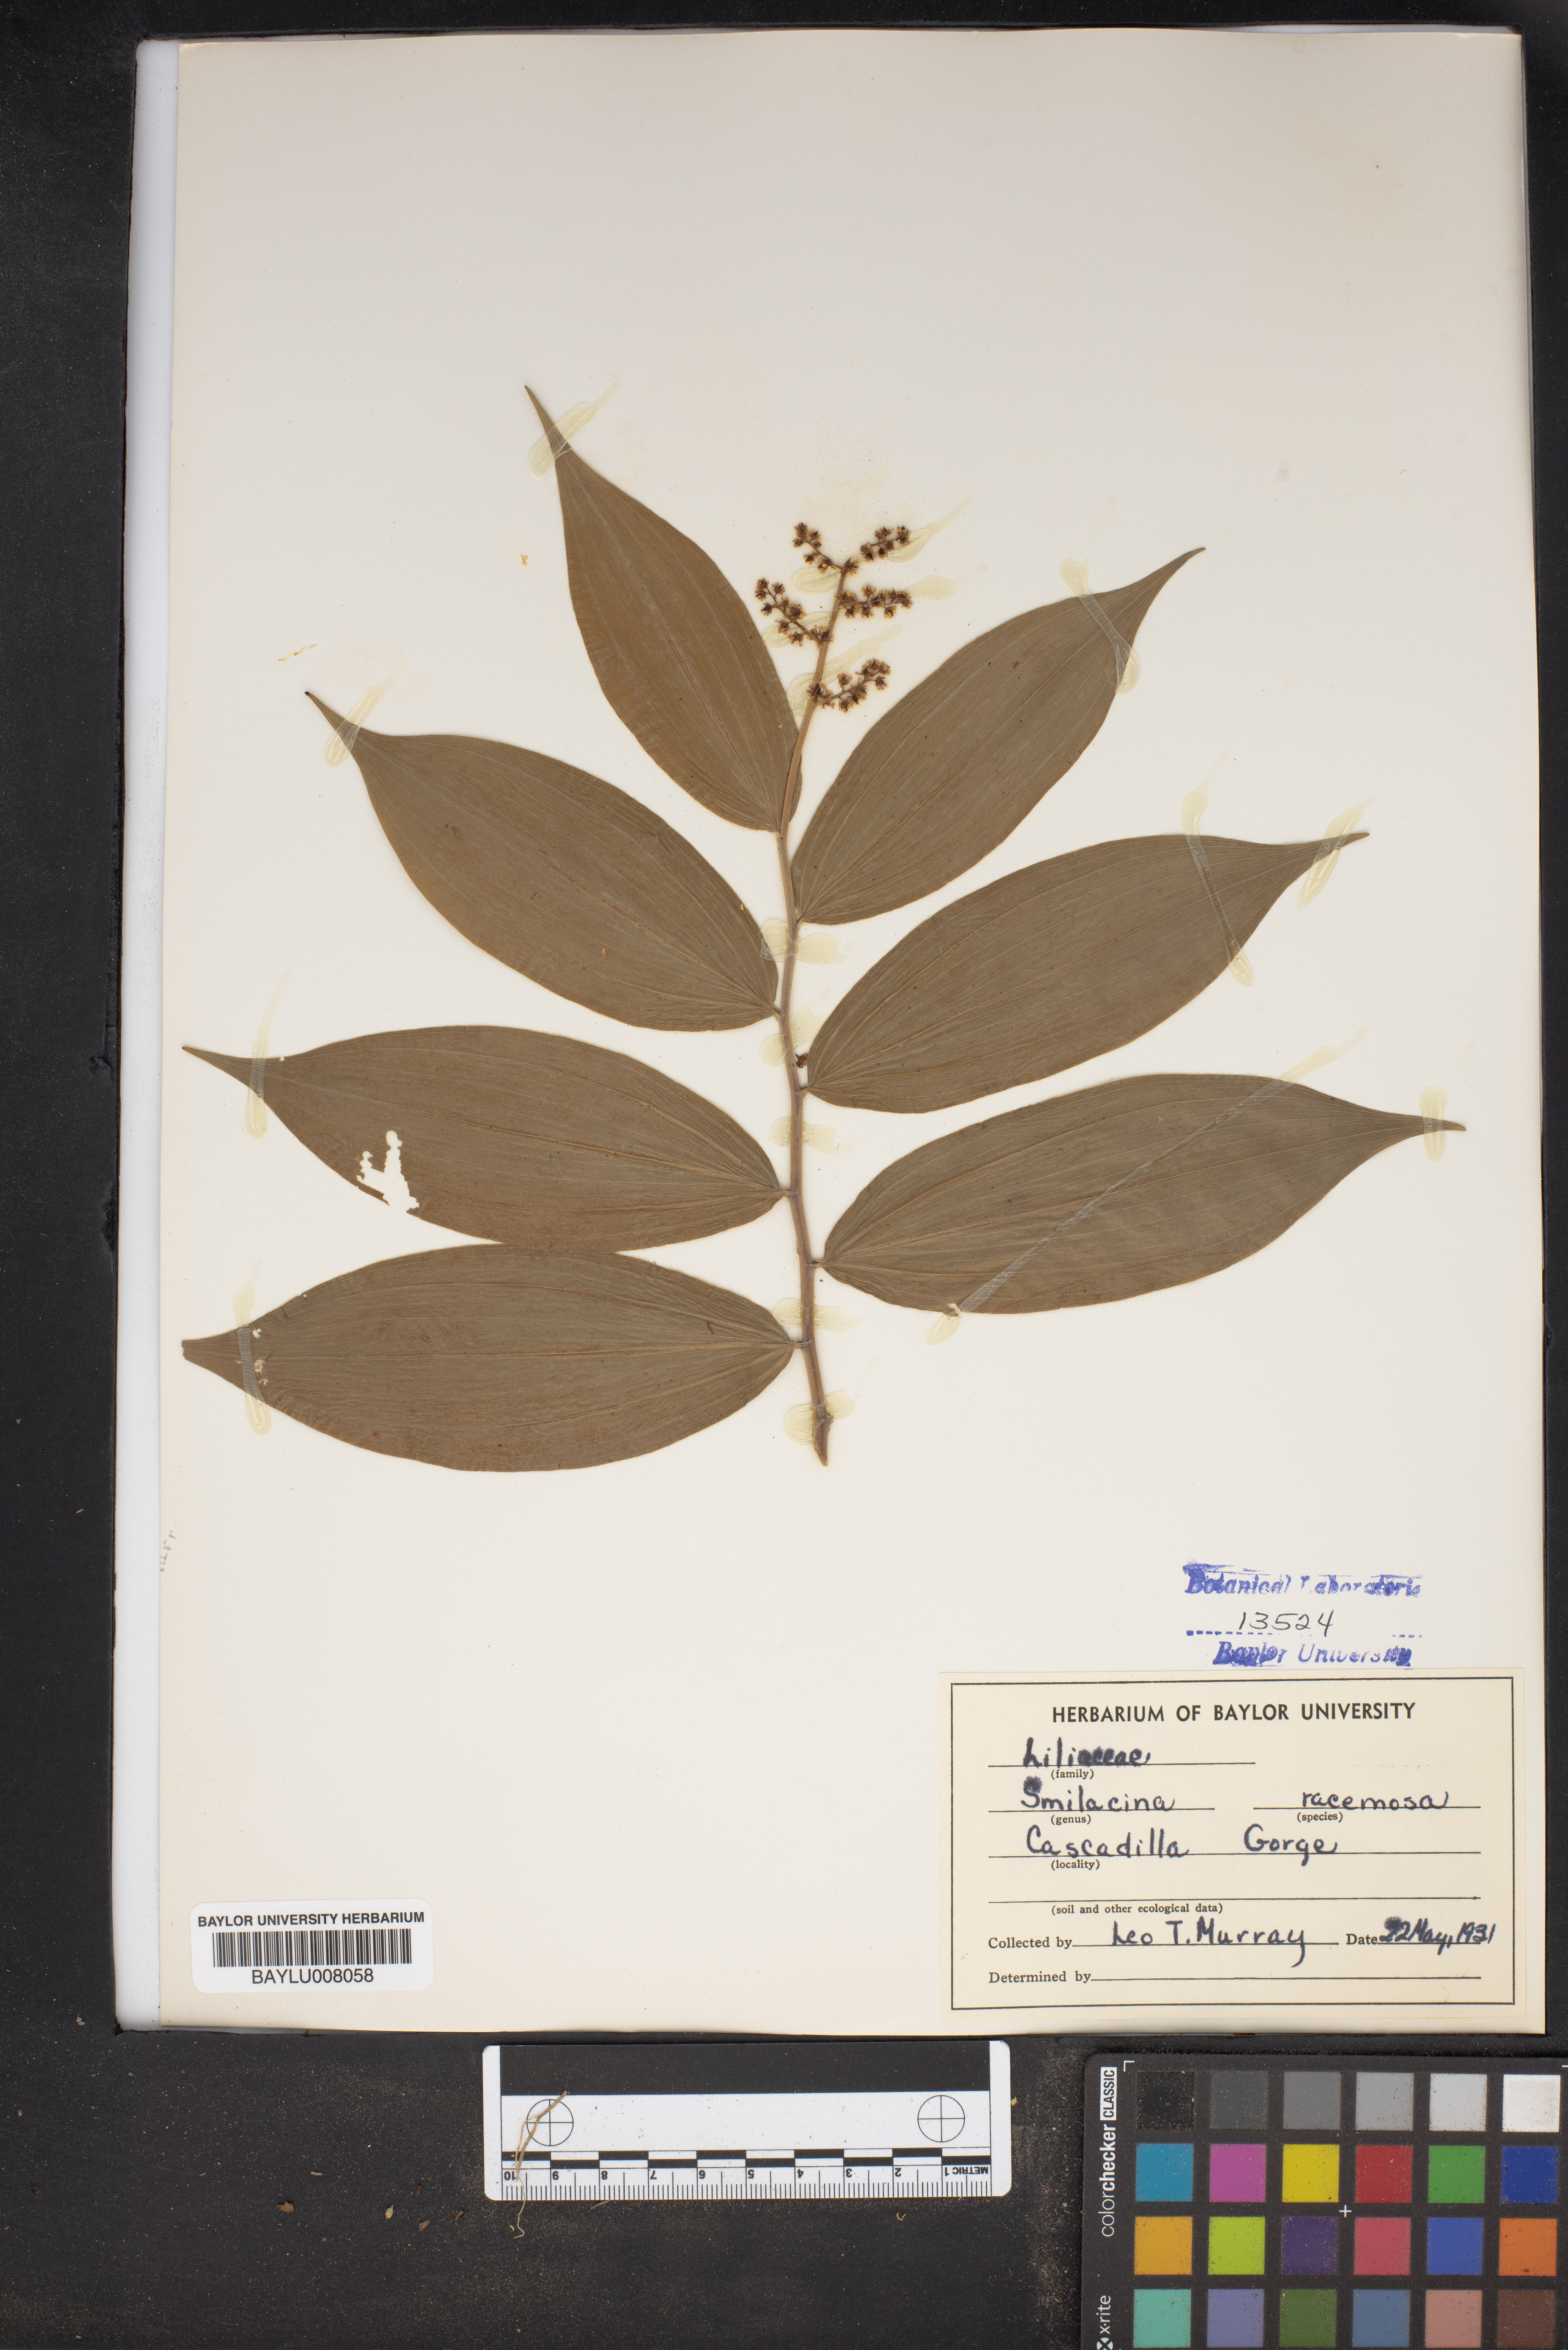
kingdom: Plantae
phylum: Tracheophyta
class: Liliopsida
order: Asparagales
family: Asparagaceae
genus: Maianthemum
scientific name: Maianthemum racemosum
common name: False spikenard
